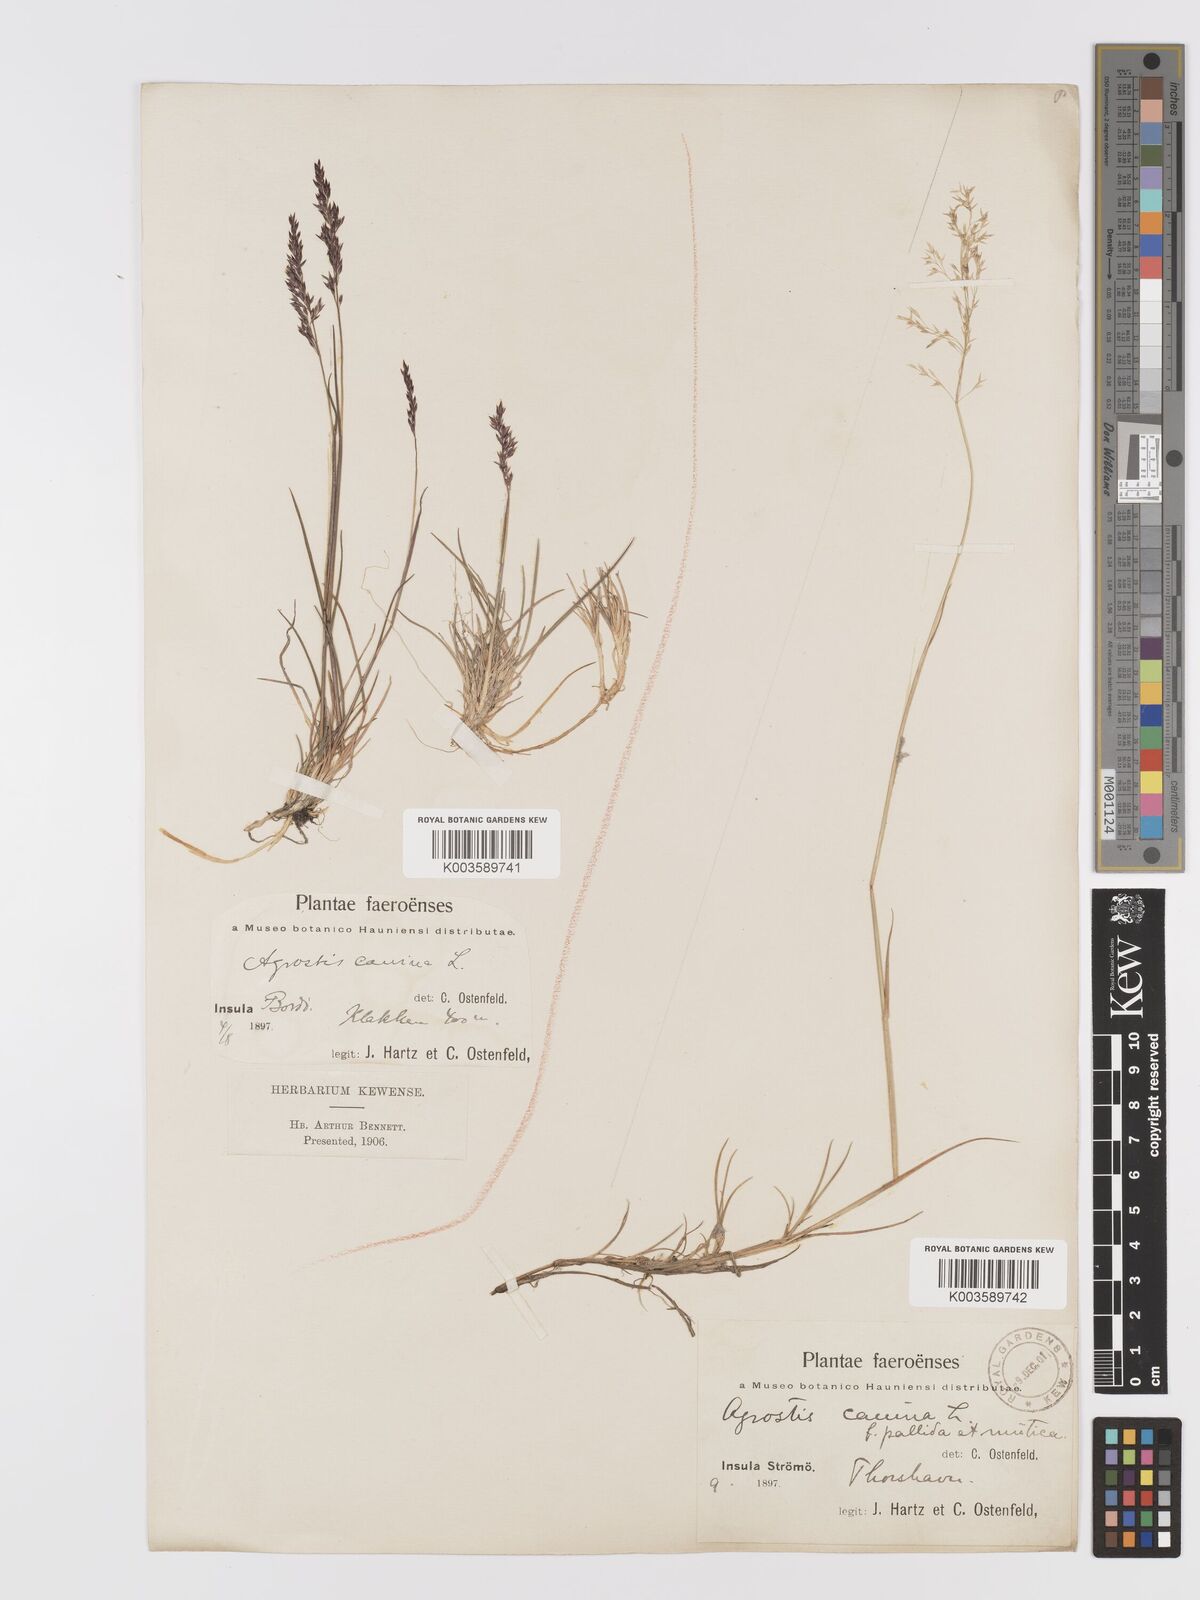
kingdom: Plantae
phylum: Tracheophyta
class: Liliopsida
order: Poales
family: Poaceae
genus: Agrostis
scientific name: Agrostis
